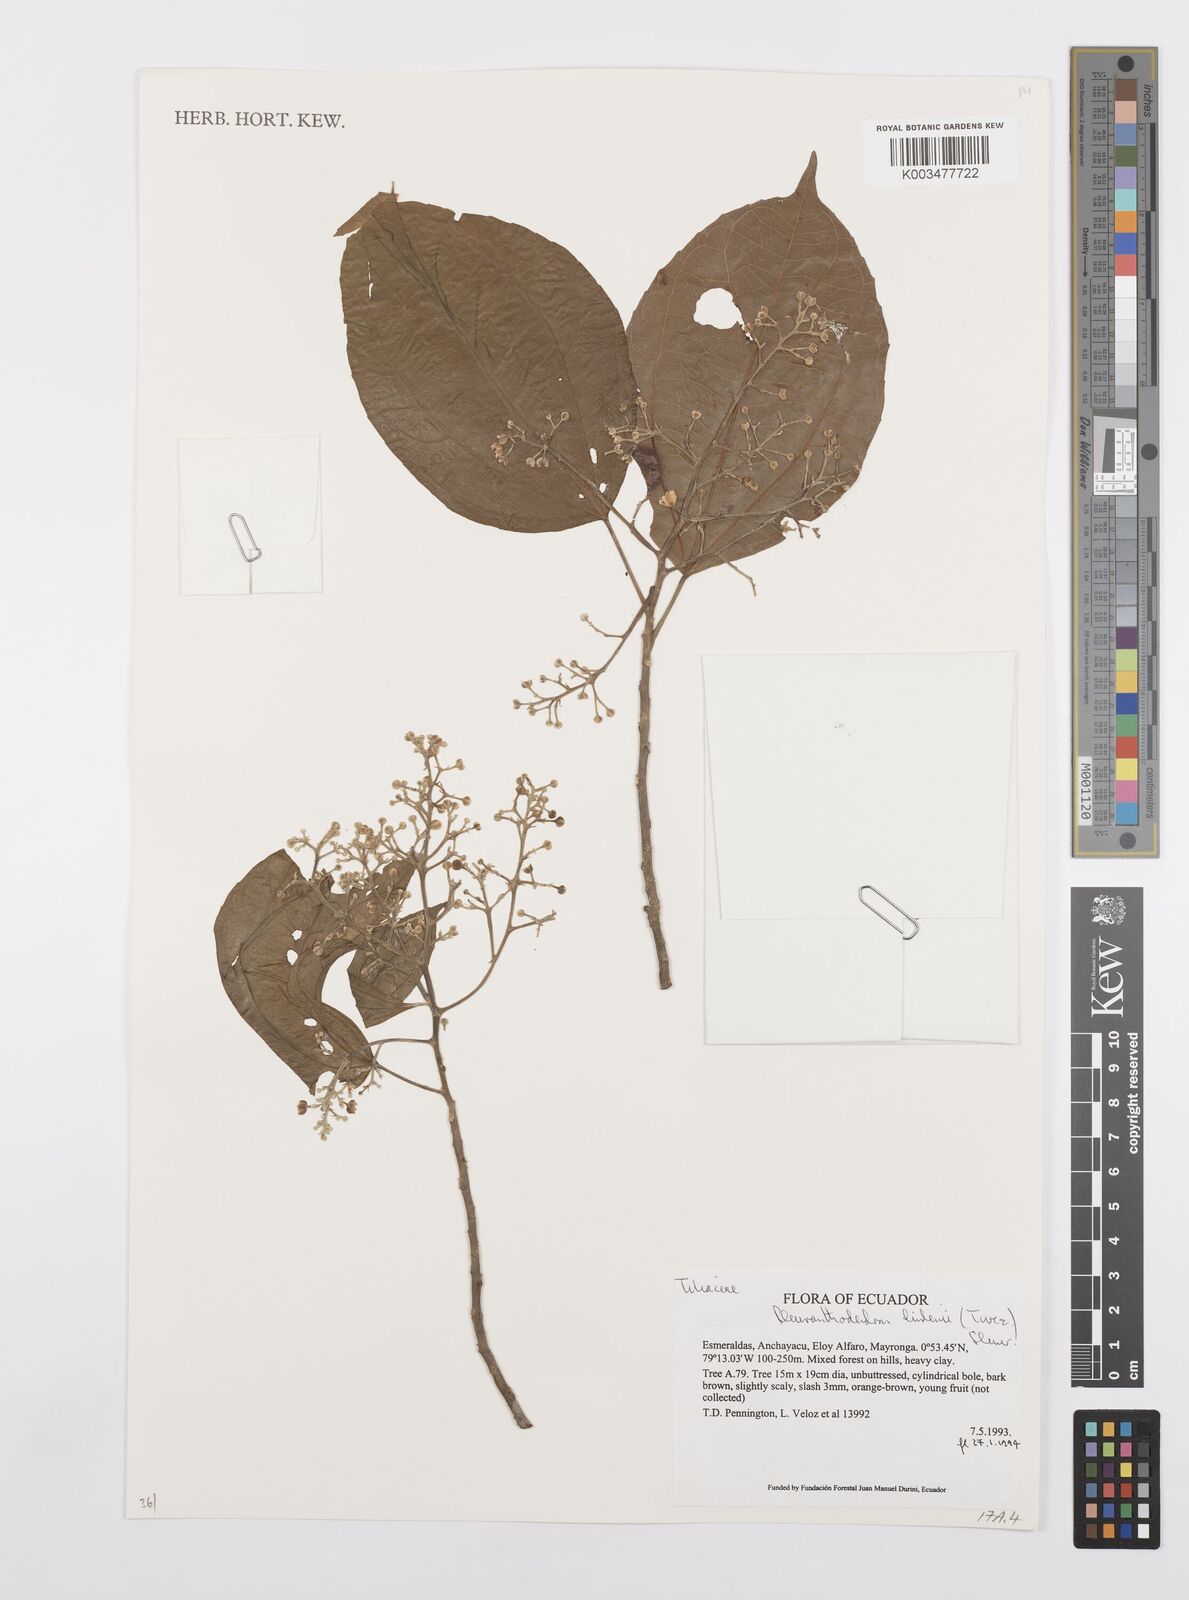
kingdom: Plantae
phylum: Tracheophyta
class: Magnoliopsida
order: Malpighiales
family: Salicaceae
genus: Pleuranthodendron
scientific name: Pleuranthodendron lindenii
